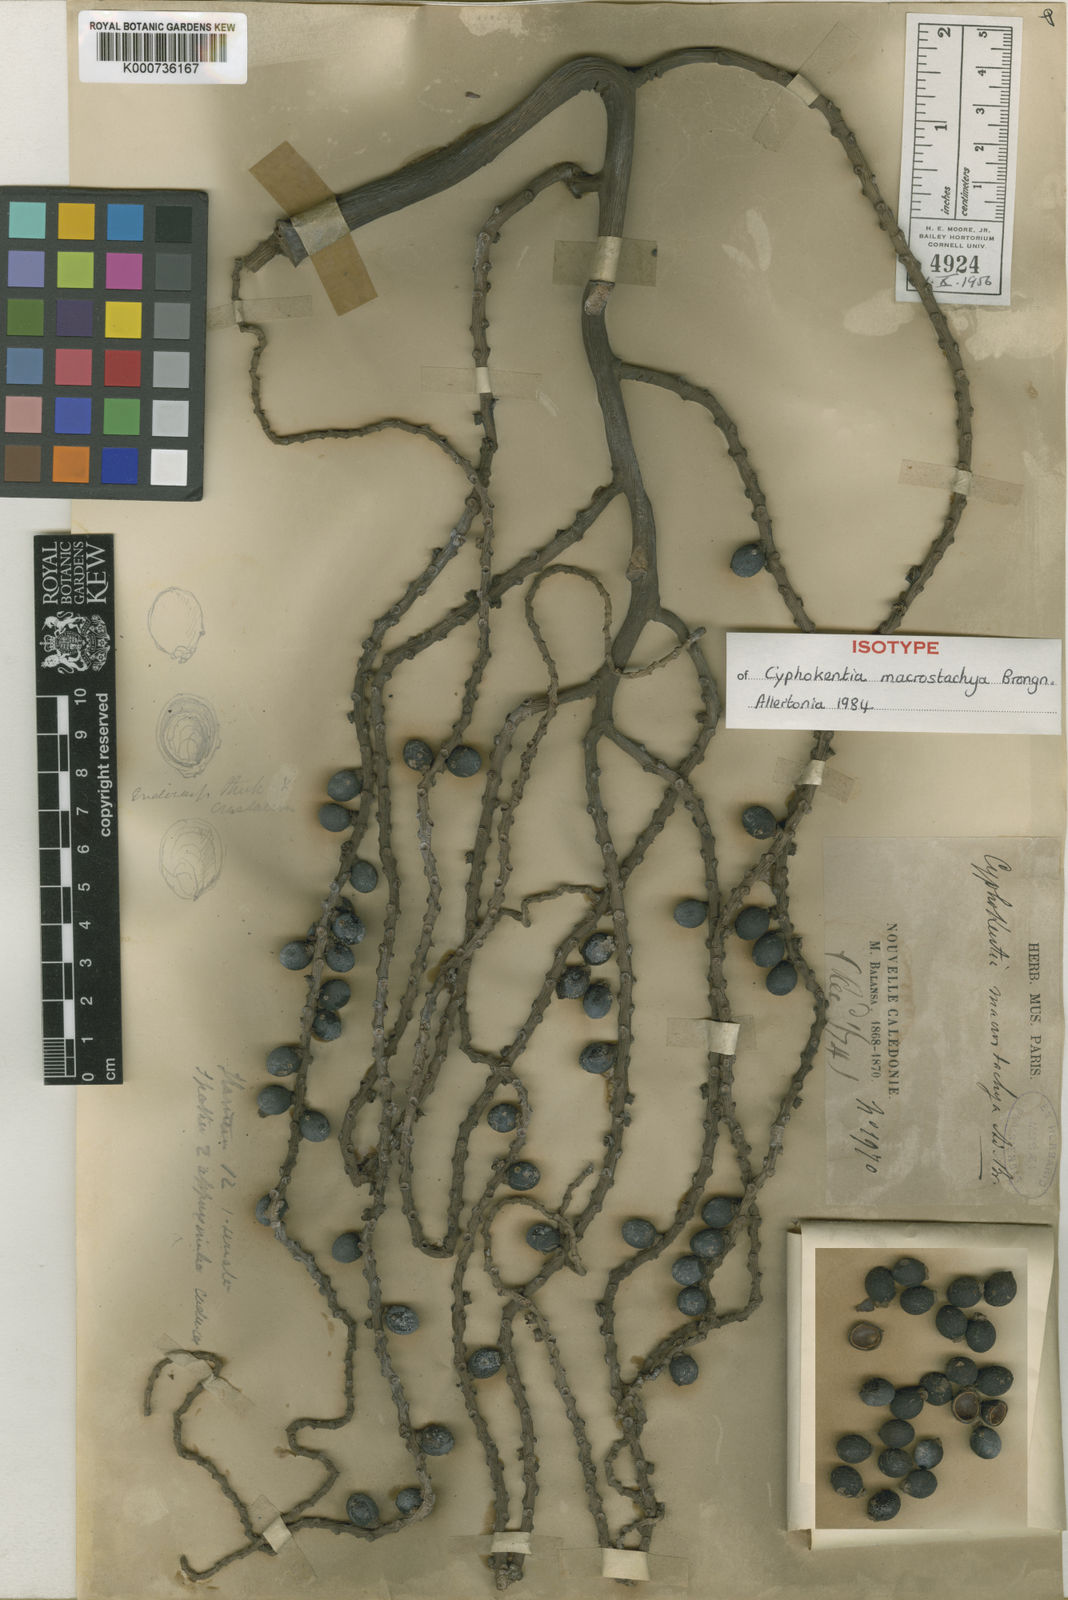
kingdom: Plantae
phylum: Tracheophyta
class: Liliopsida
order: Arecales
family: Arecaceae
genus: Cyphokentia
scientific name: Cyphokentia macrostachya
